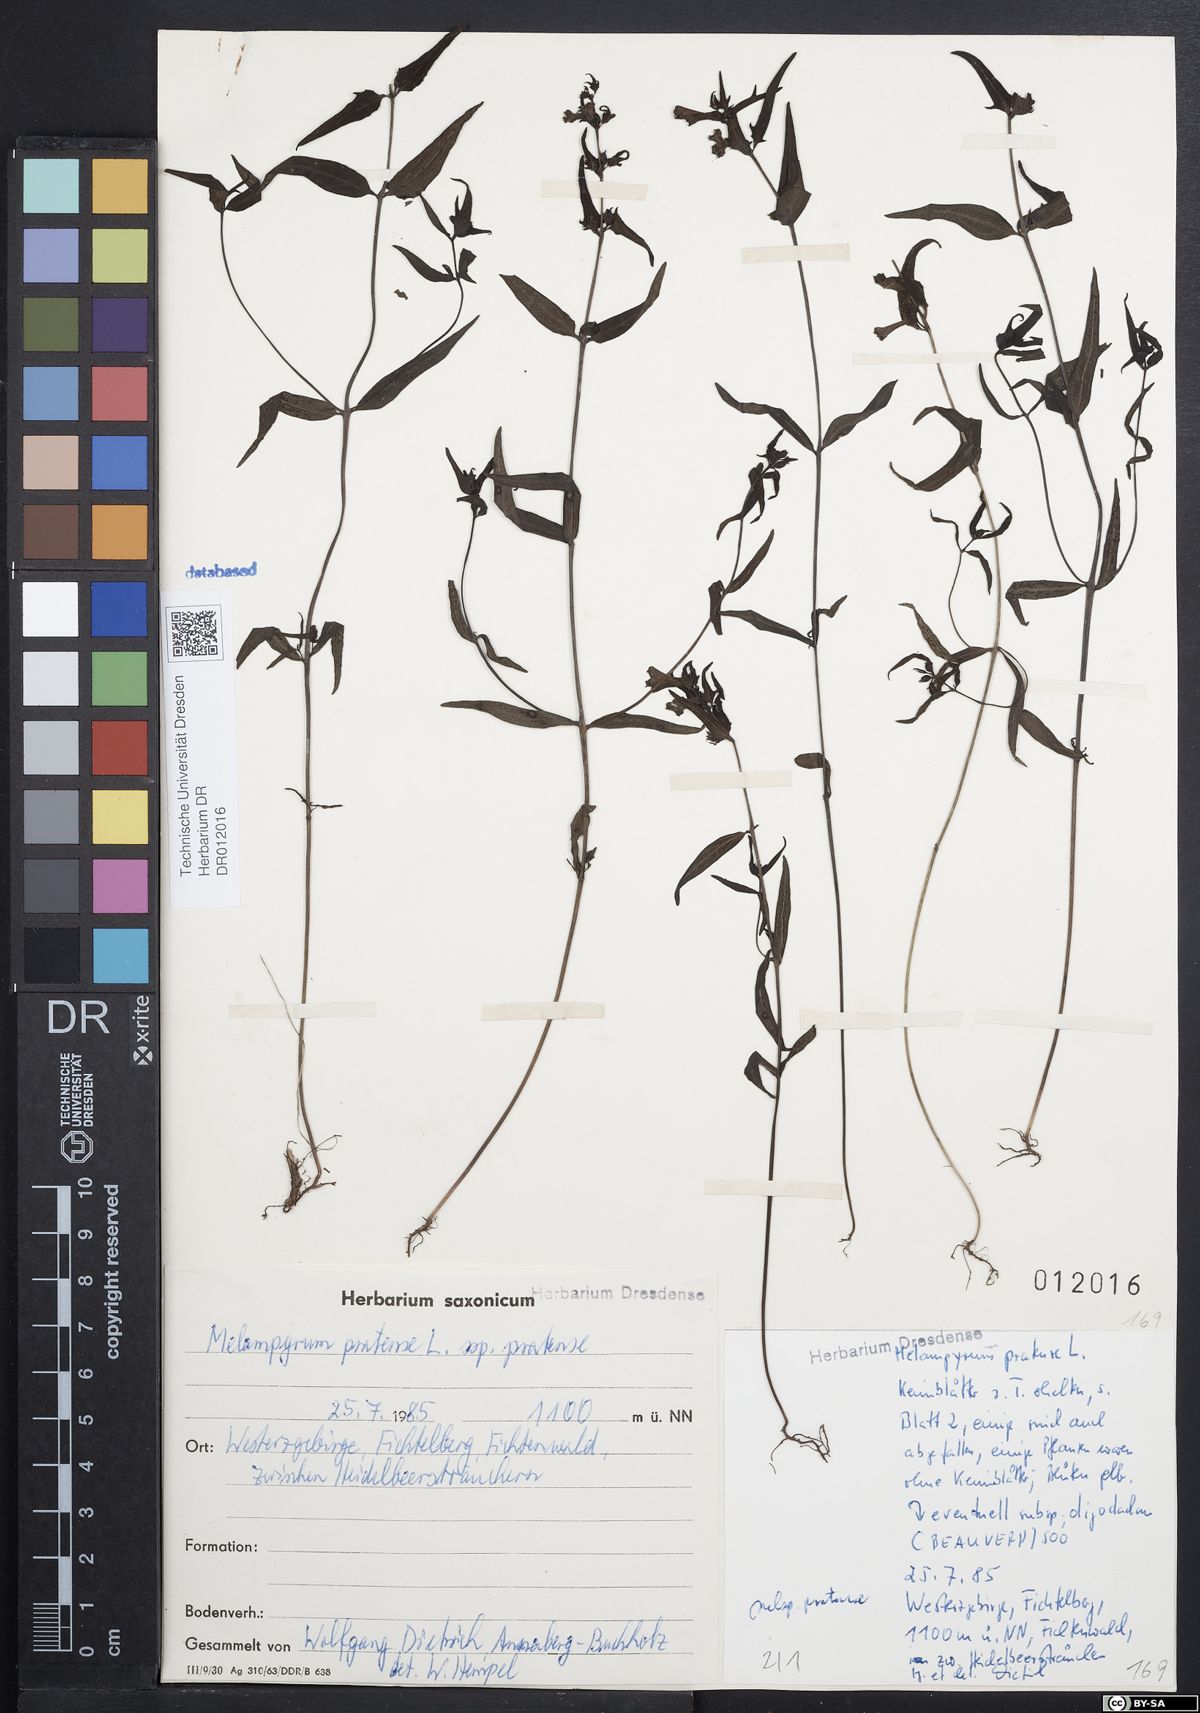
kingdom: Plantae
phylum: Tracheophyta
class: Magnoliopsida
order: Lamiales
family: Orobanchaceae
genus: Melampyrum
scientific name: Melampyrum pratense
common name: Common cow-wheat
